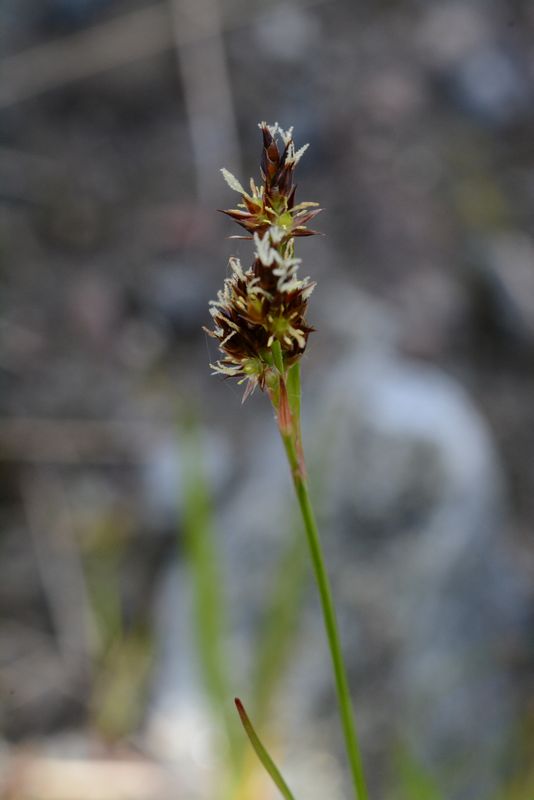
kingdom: Plantae
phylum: Tracheophyta
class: Liliopsida
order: Poales
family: Juncaceae
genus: Luzula
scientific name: Luzula multiflora
